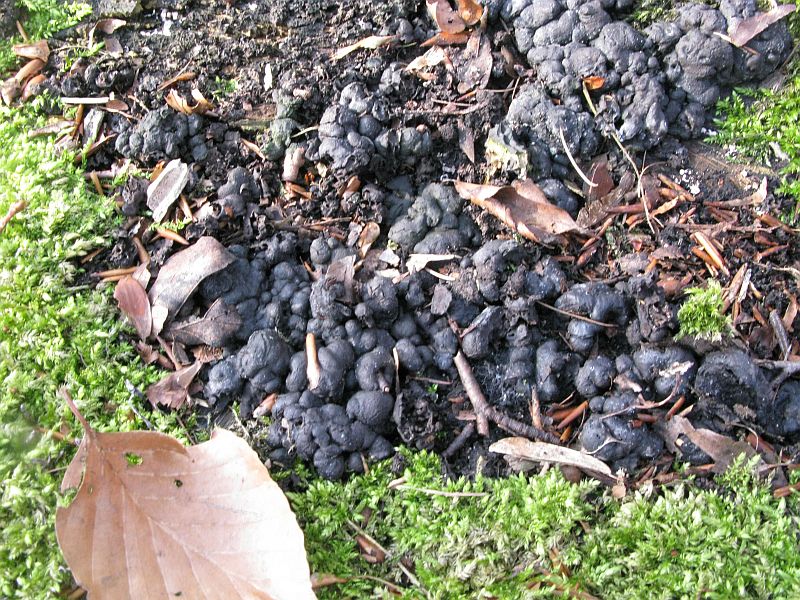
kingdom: Fungi
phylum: Ascomycota
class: Sordariomycetes
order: Xylariales
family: Xylariaceae
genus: Kretzschmaria
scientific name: Kretzschmaria deusta
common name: stor kulsvamp
